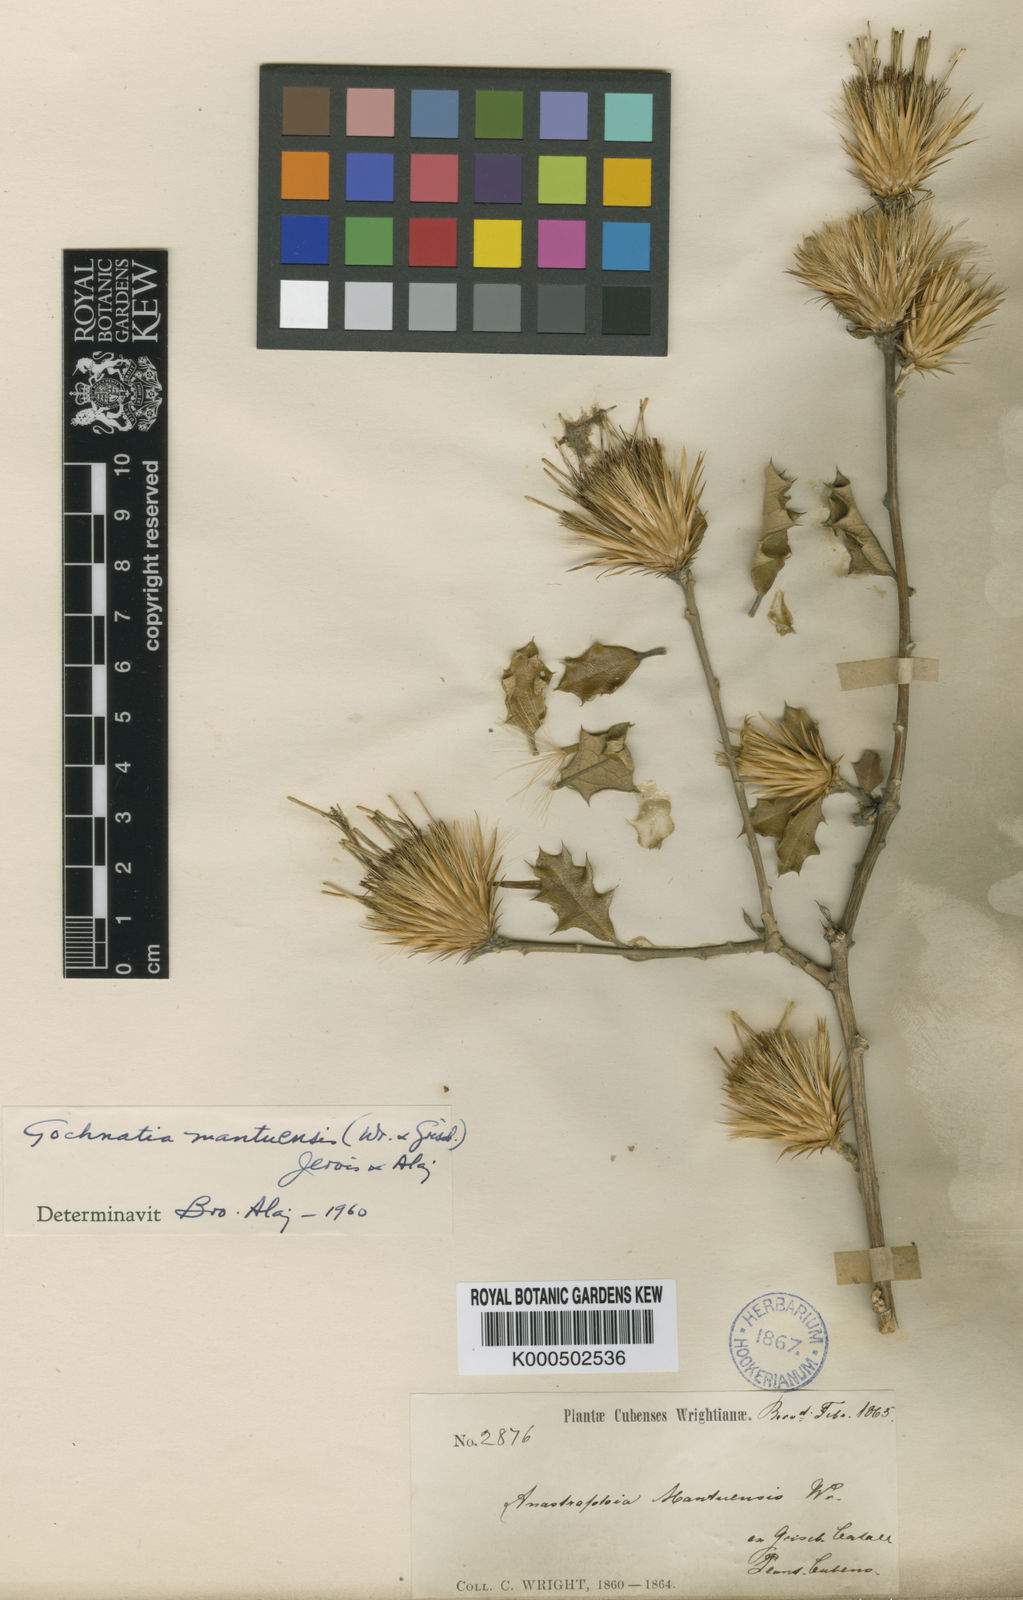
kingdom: Plantae
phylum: Tracheophyta
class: Magnoliopsida
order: Asterales
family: Asteraceae
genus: Anastraphia
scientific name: Anastraphia mantuensis
